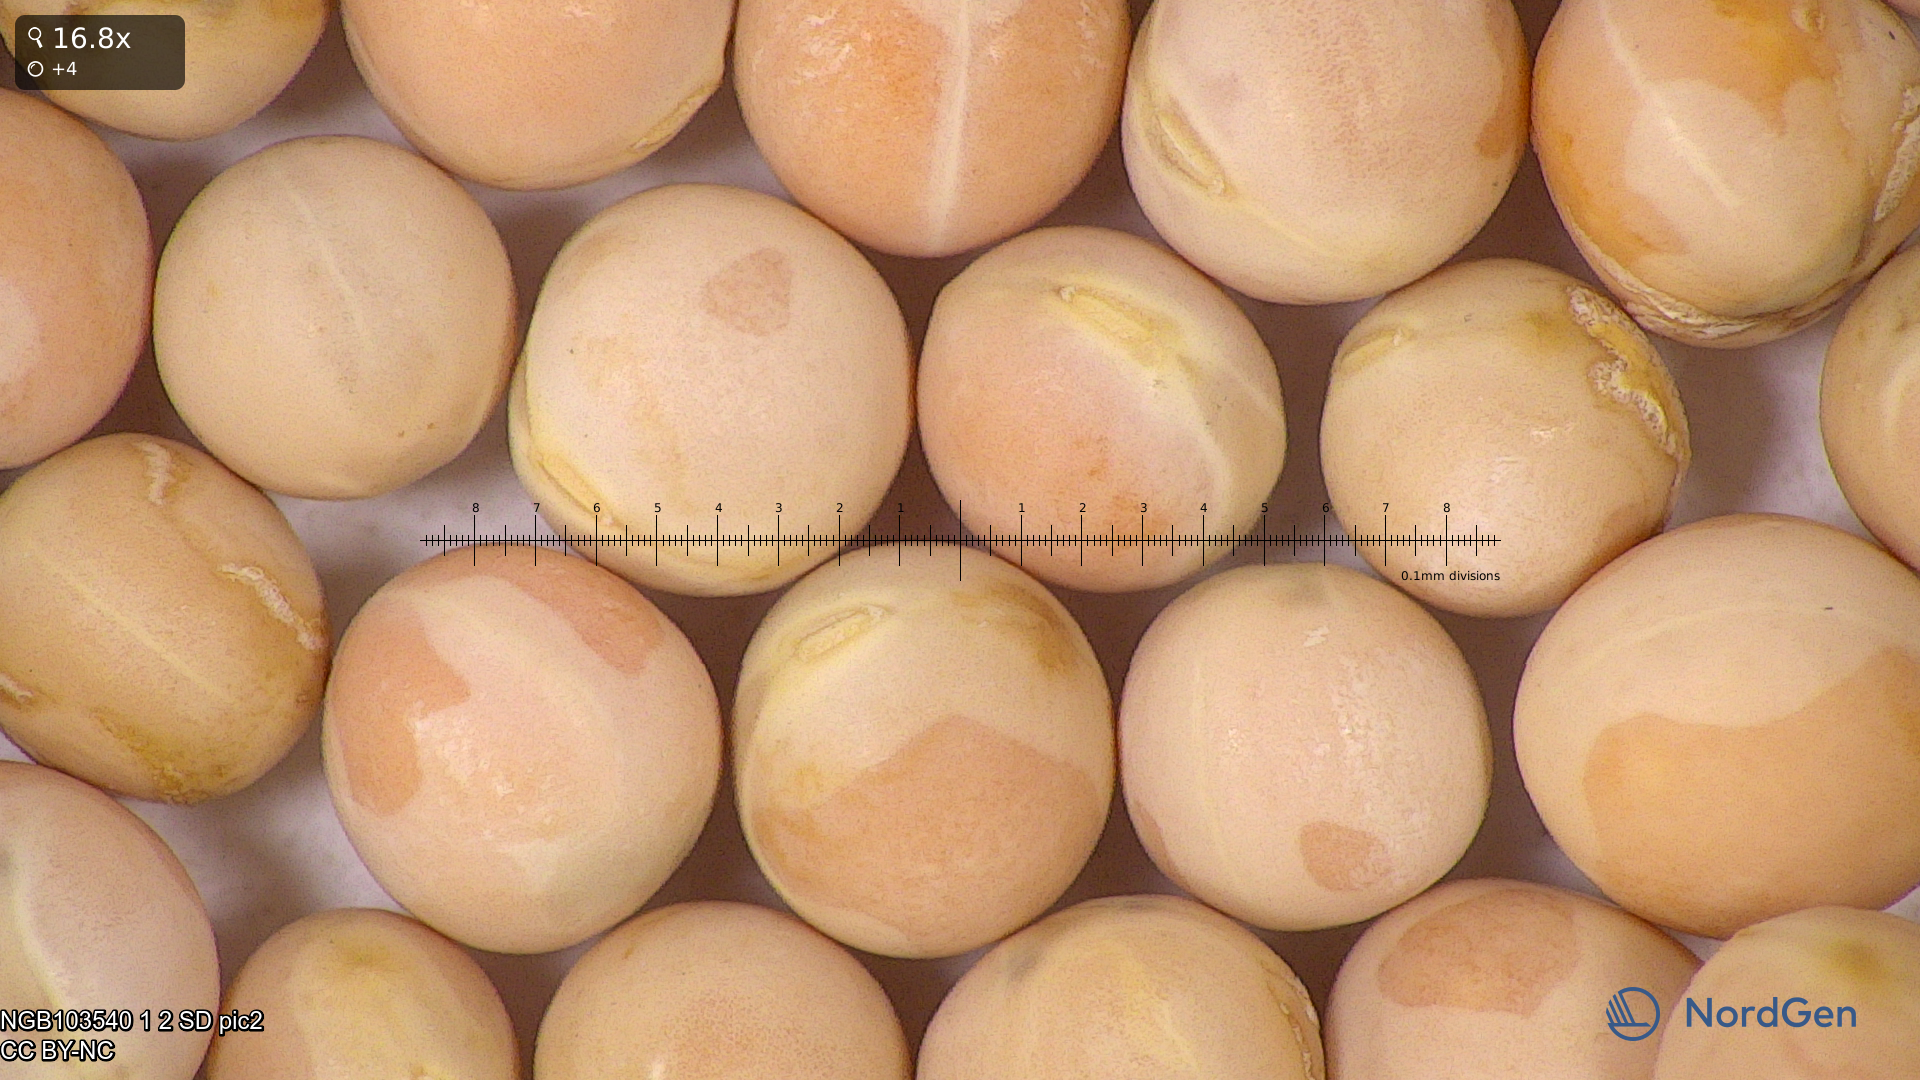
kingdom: Plantae
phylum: Tracheophyta
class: Magnoliopsida
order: Fabales
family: Fabaceae
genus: Lathyrus
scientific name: Lathyrus oleraceus
